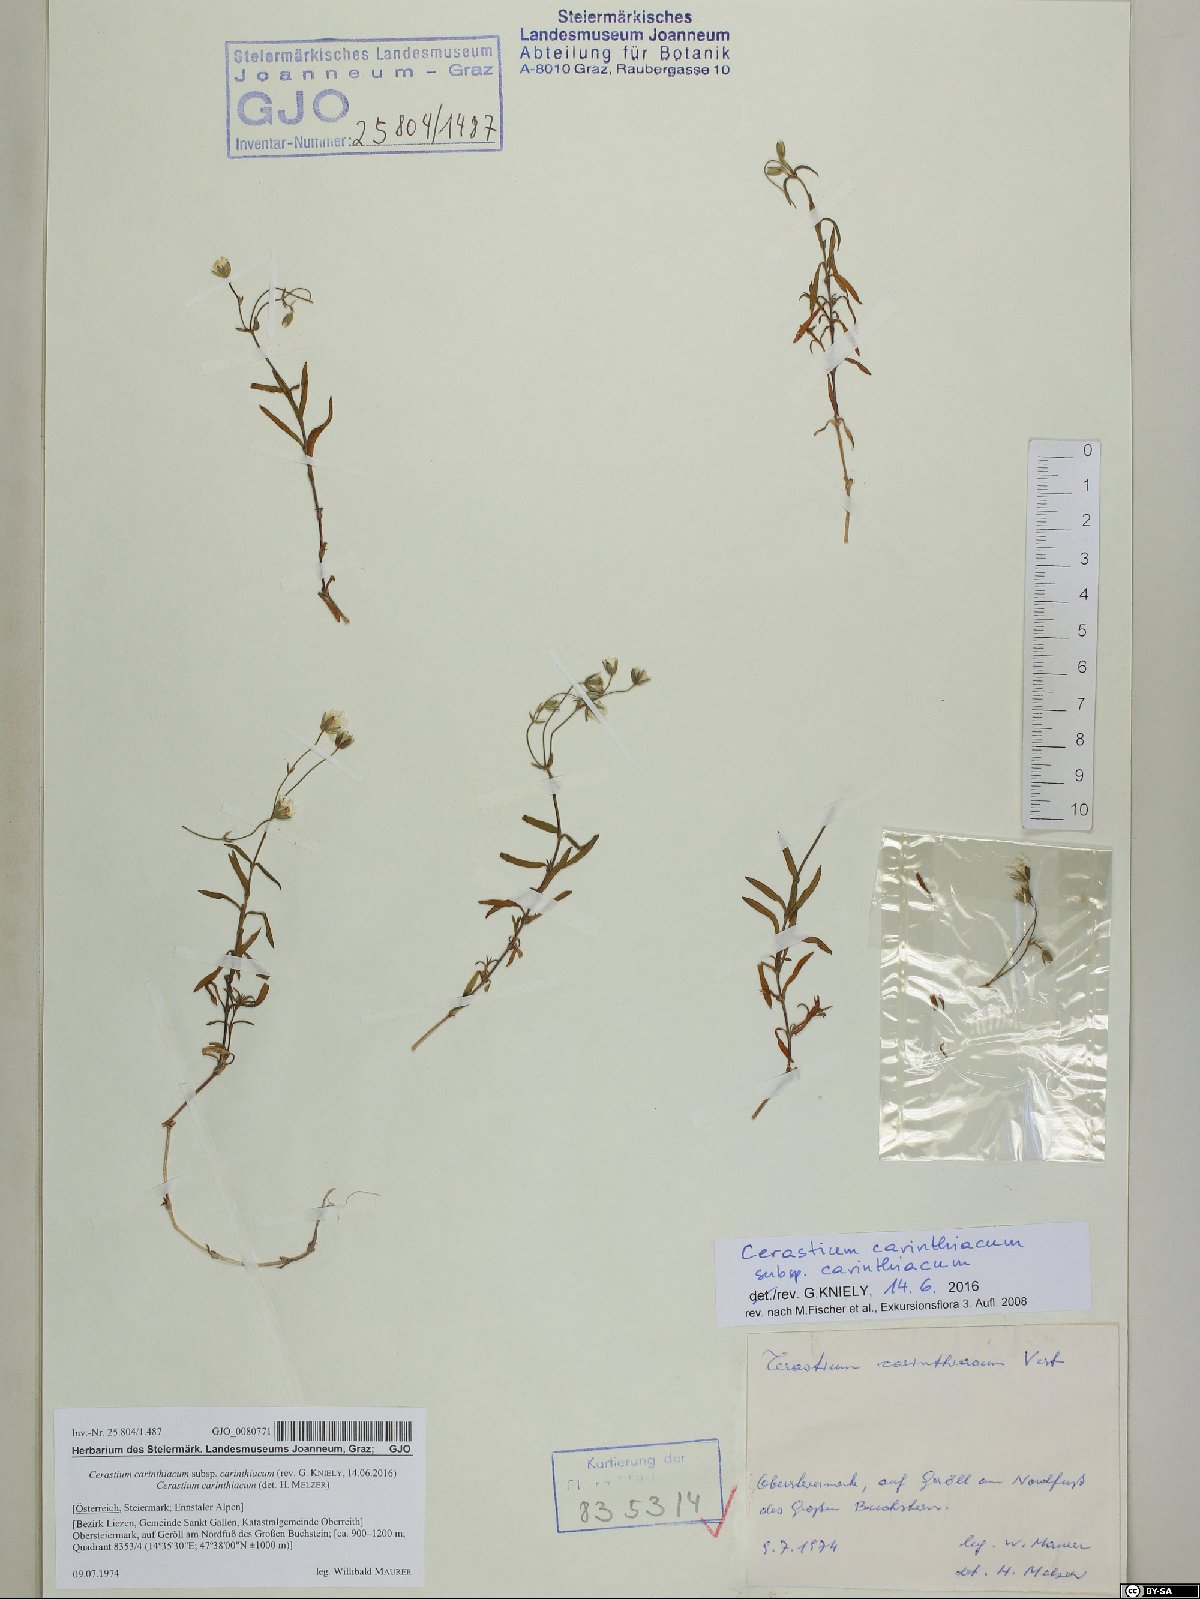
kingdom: Plantae
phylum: Tracheophyta
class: Magnoliopsida
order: Caryophyllales
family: Caryophyllaceae
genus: Cerastium
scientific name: Cerastium carinthiacum
